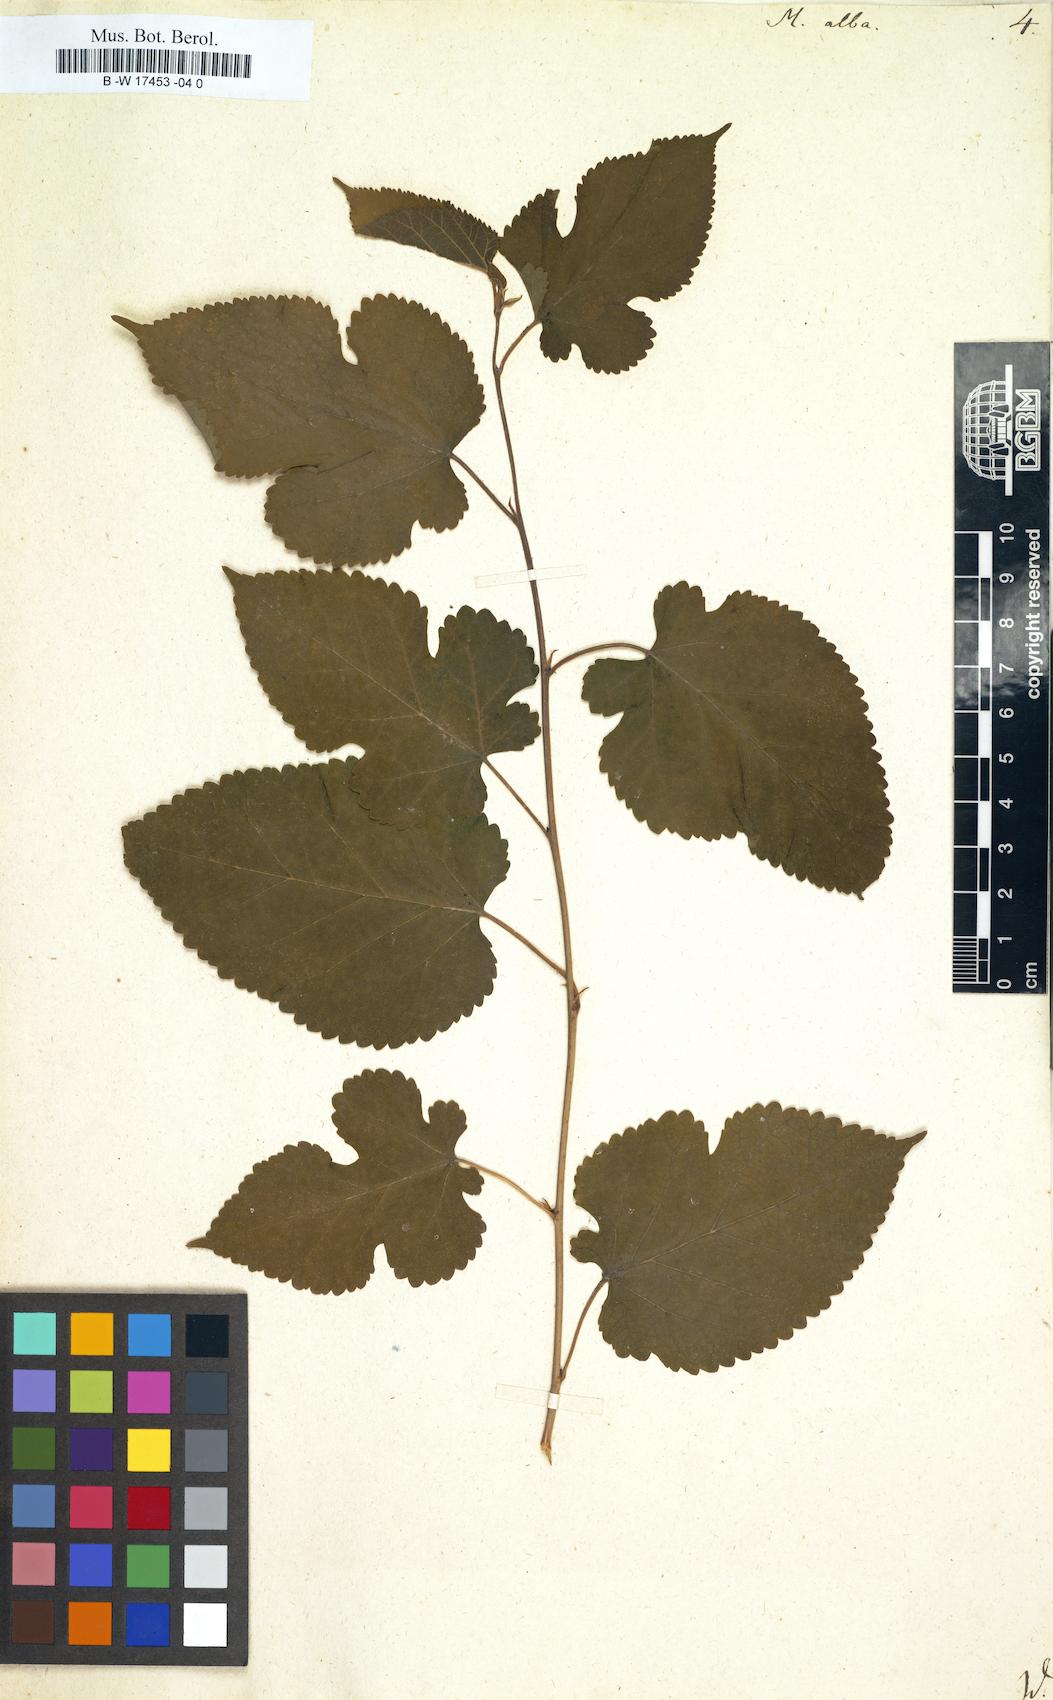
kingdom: Plantae
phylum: Tracheophyta
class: Magnoliopsida
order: Rosales
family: Moraceae
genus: Morus
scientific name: Morus alba
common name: White mulberry
